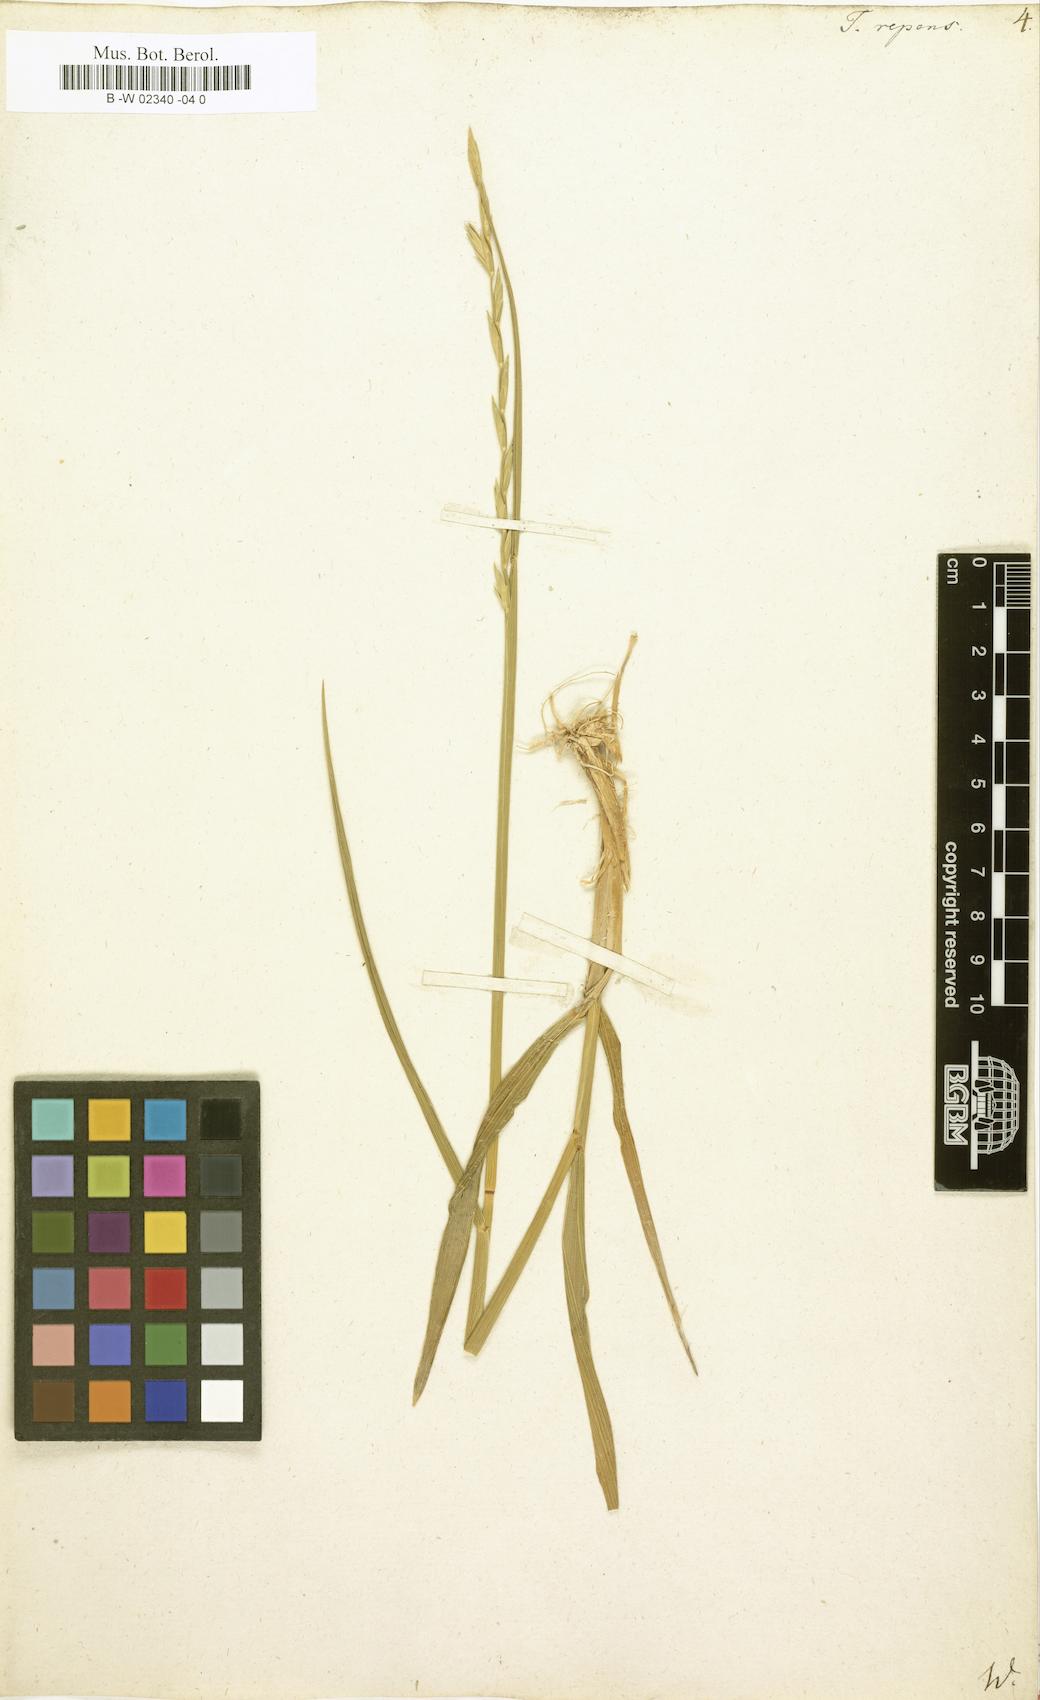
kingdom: Plantae
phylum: Tracheophyta
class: Liliopsida
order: Poales
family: Poaceae
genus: Elymus
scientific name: Elymus repens
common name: Quackgrass
